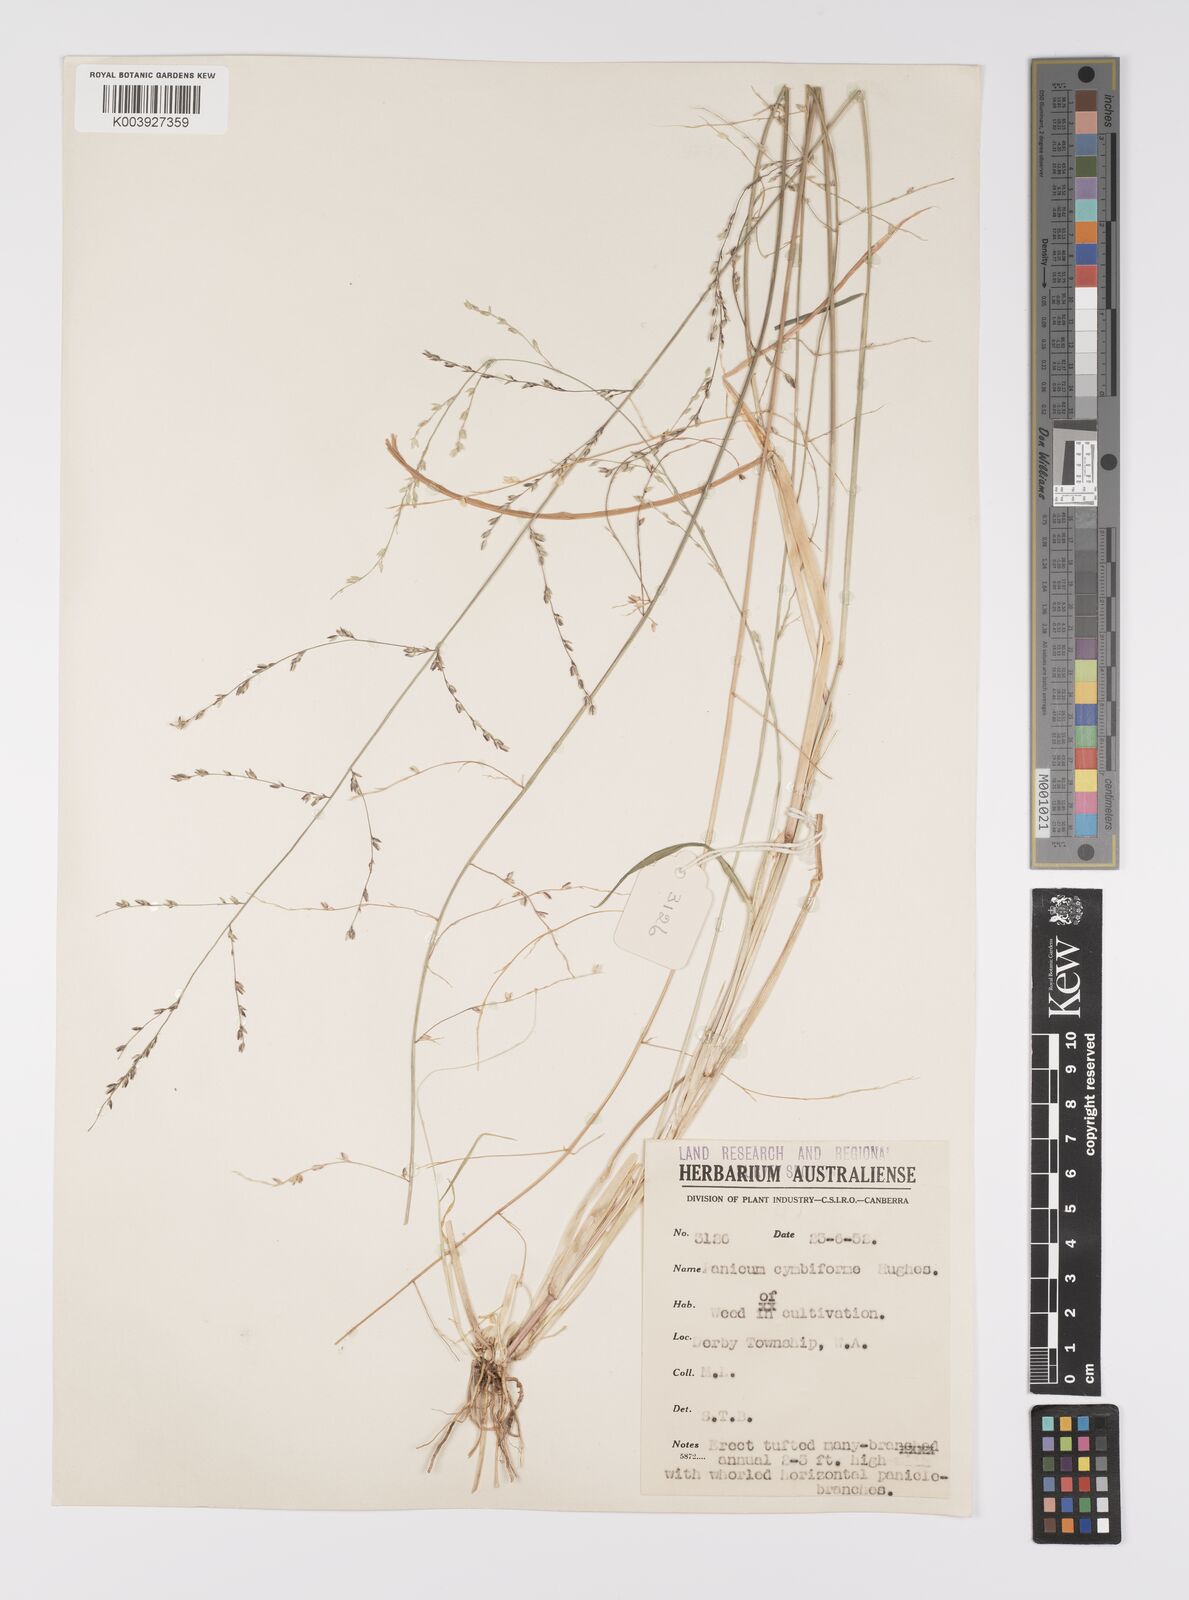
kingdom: Plantae
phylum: Tracheophyta
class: Liliopsida
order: Poales
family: Poaceae
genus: Whiteochloa
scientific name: Whiteochloa cymbiformis
